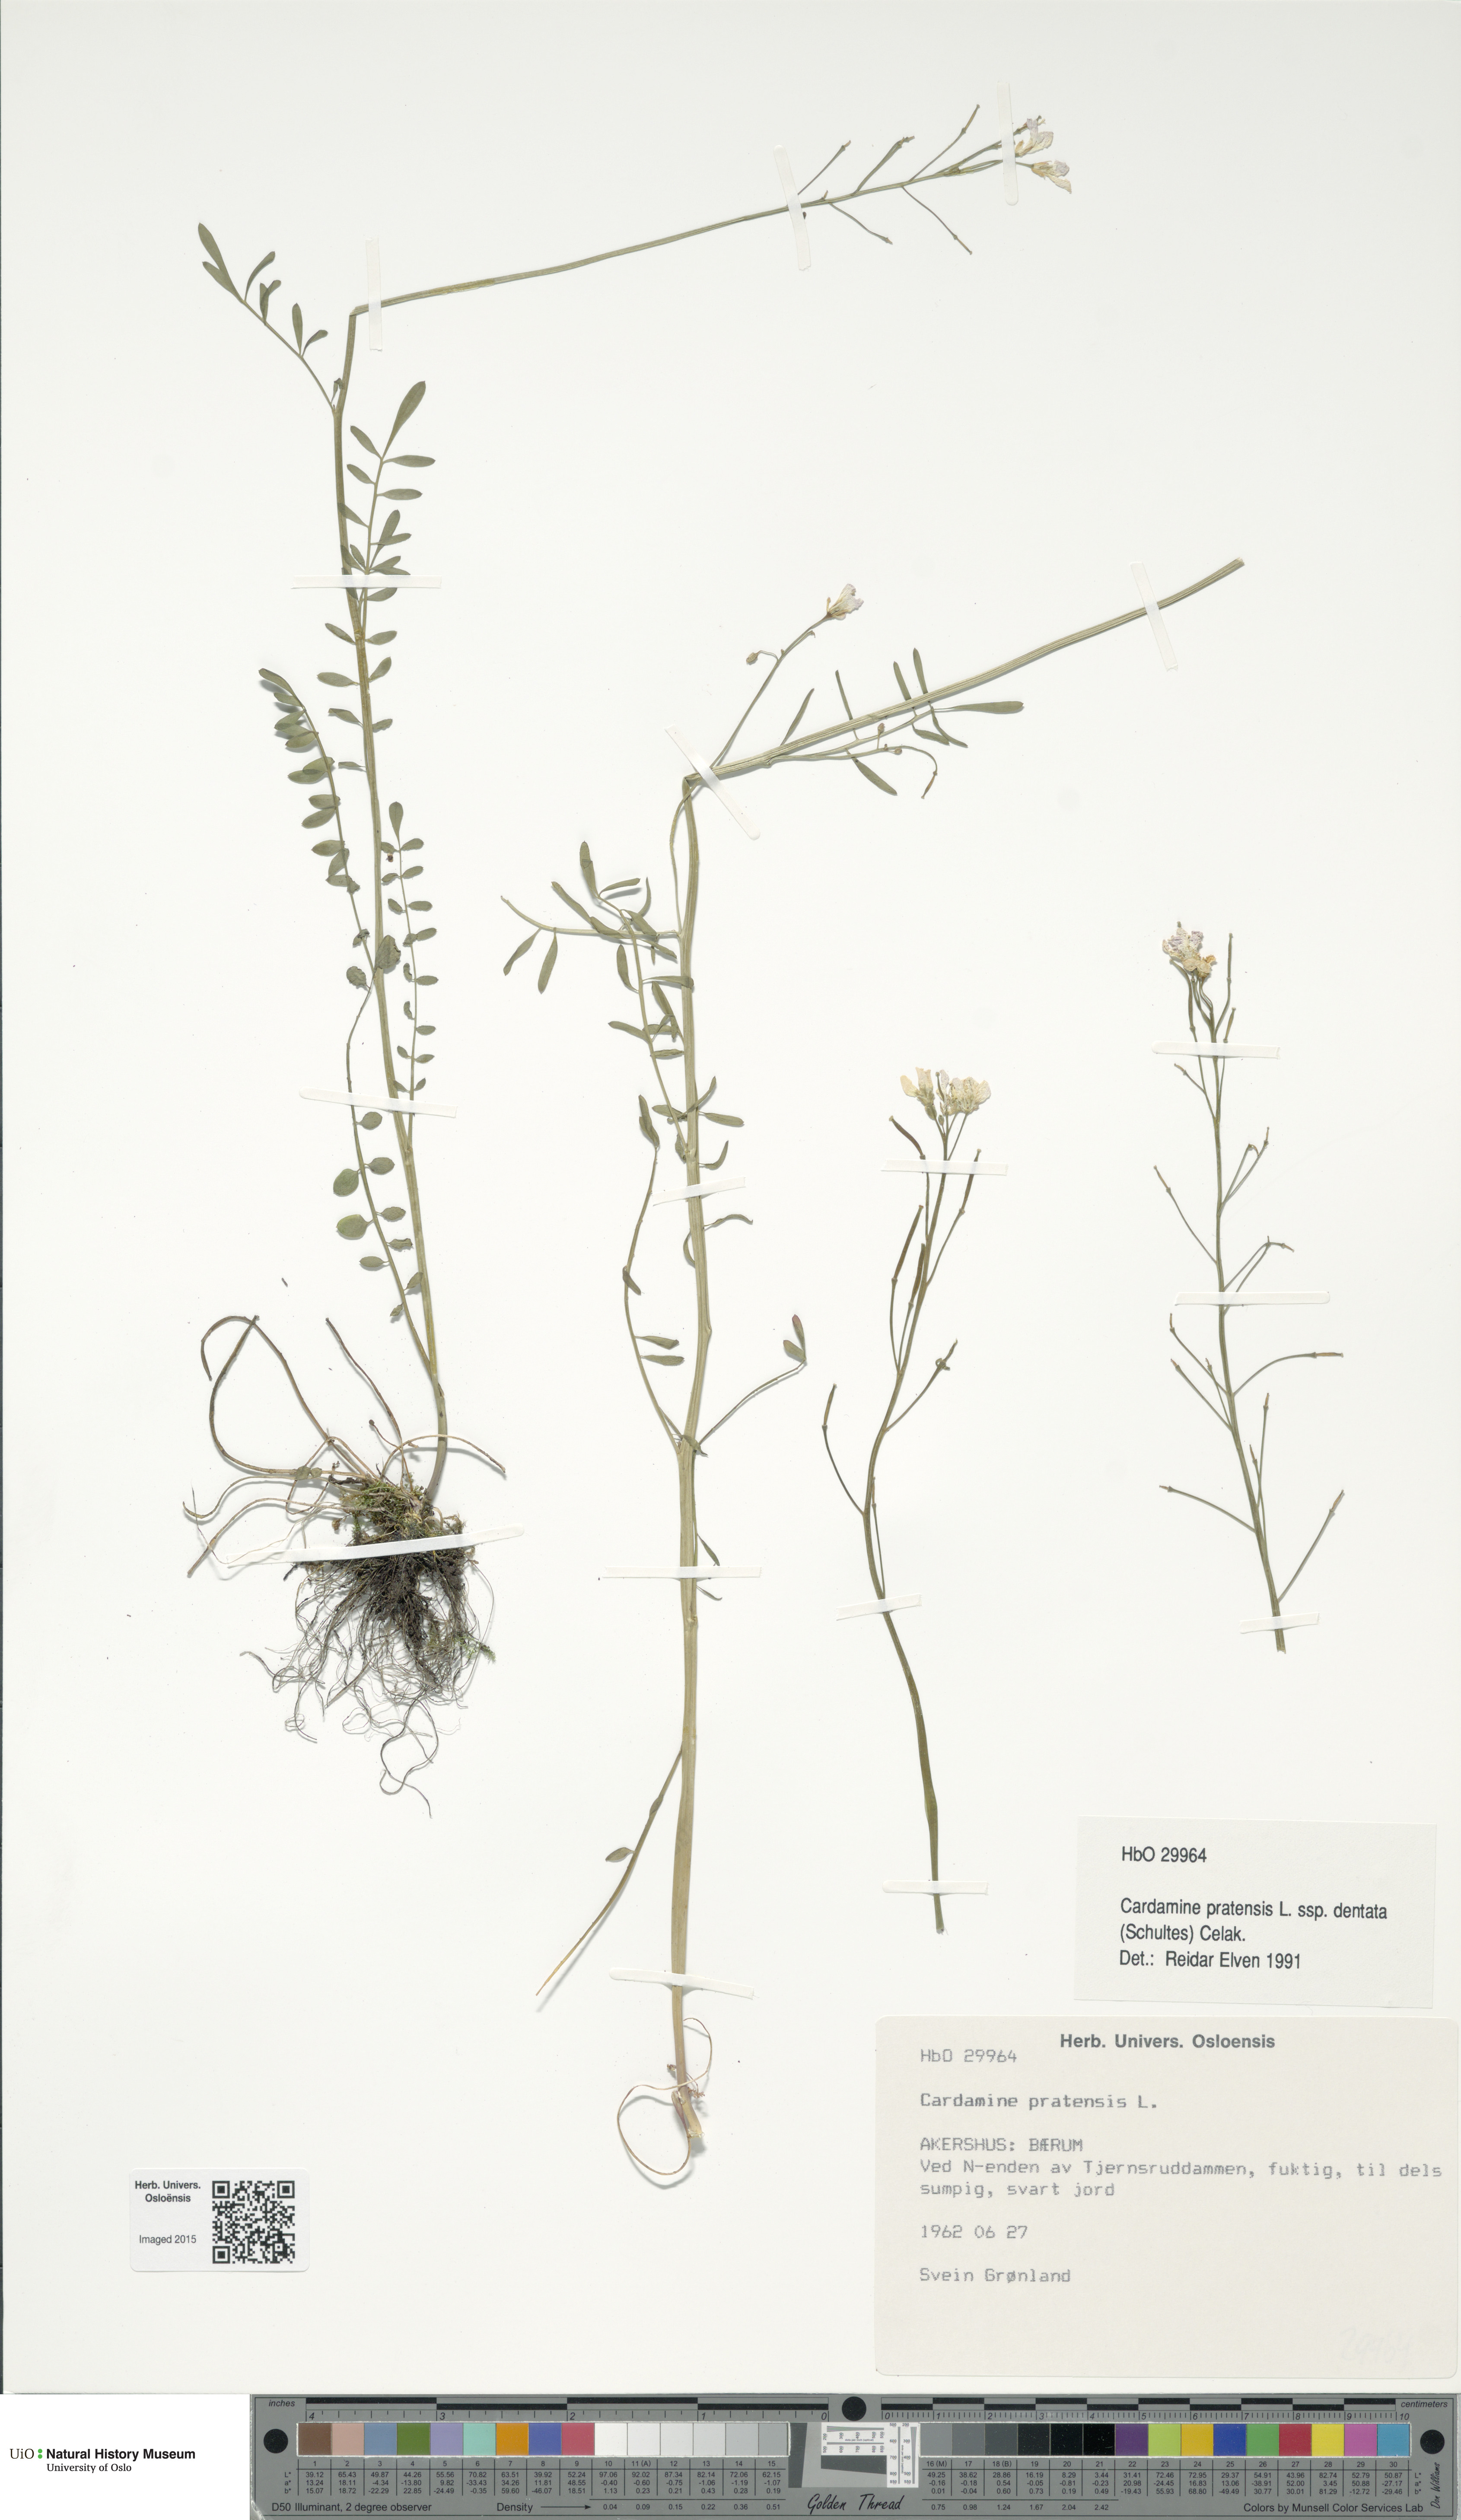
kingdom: Plantae
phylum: Tracheophyta
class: Magnoliopsida
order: Brassicales
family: Brassicaceae
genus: Cardamine
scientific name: Cardamine dentata
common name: Toothed bittercress
